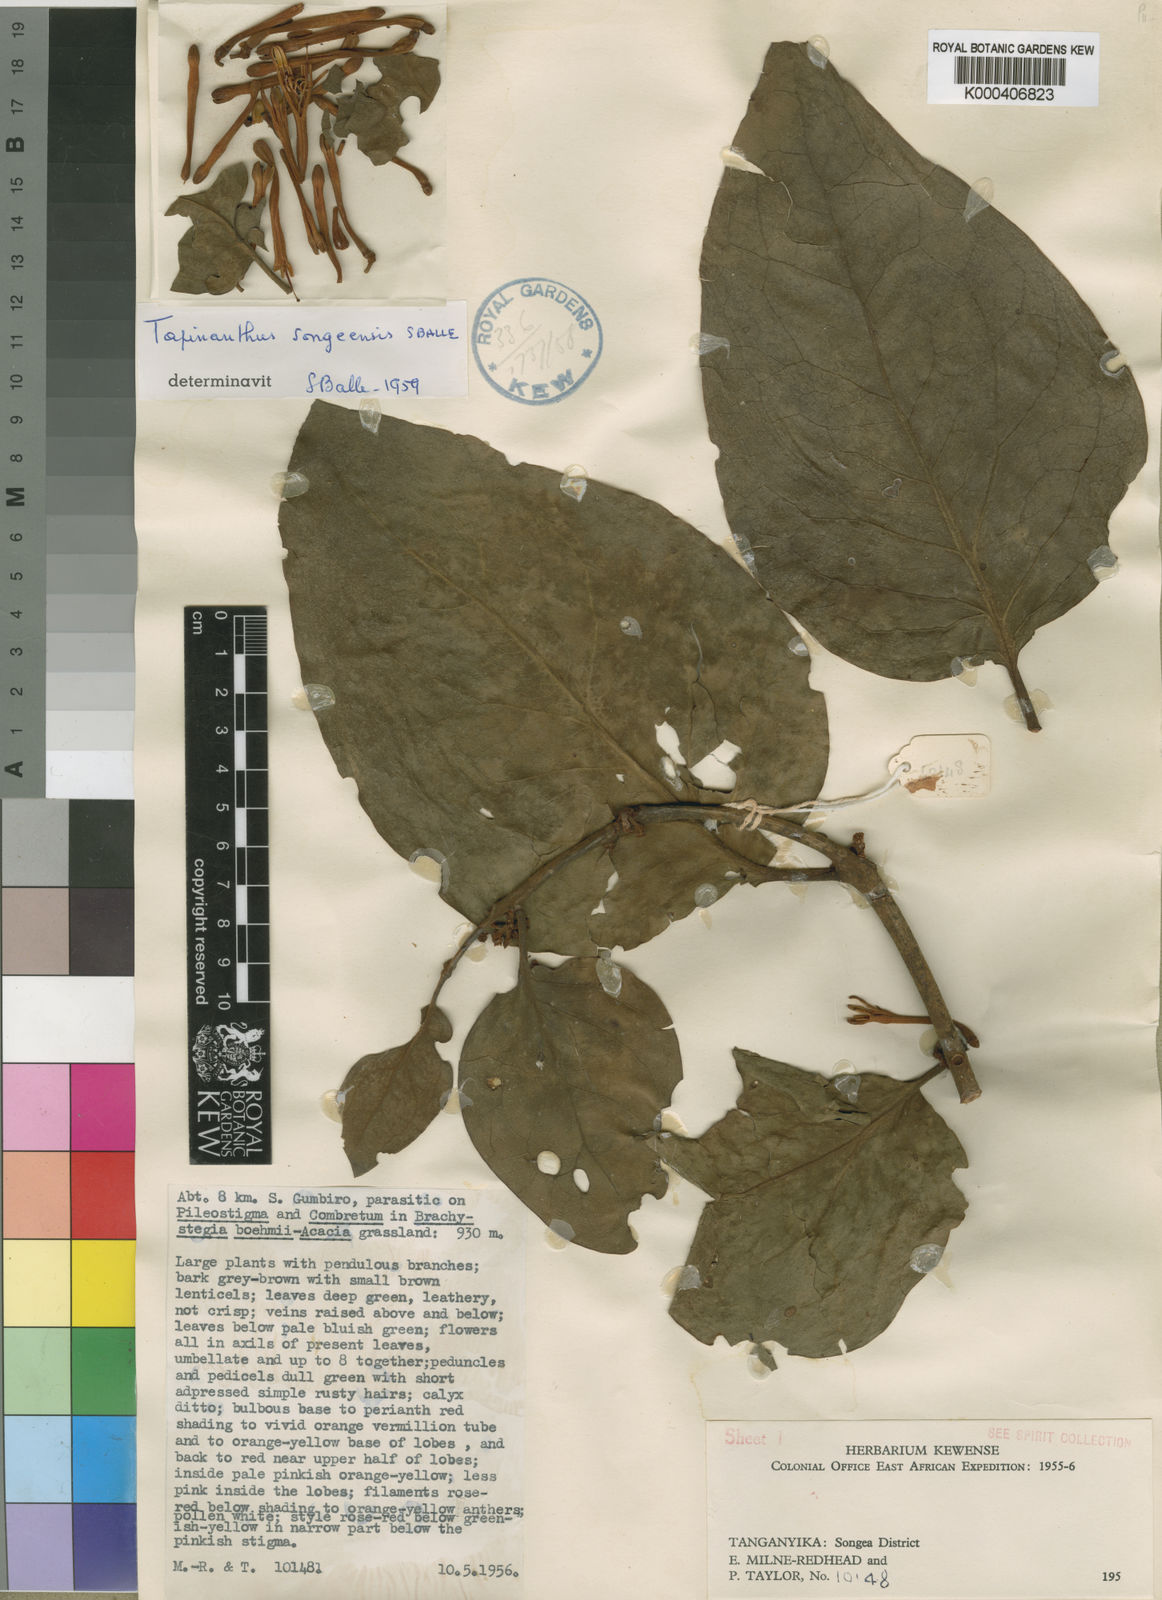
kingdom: Plantae
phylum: Tracheophyta
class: Magnoliopsida
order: Santalales
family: Loranthaceae
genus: Agelanthus
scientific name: Agelanthus songeensis
